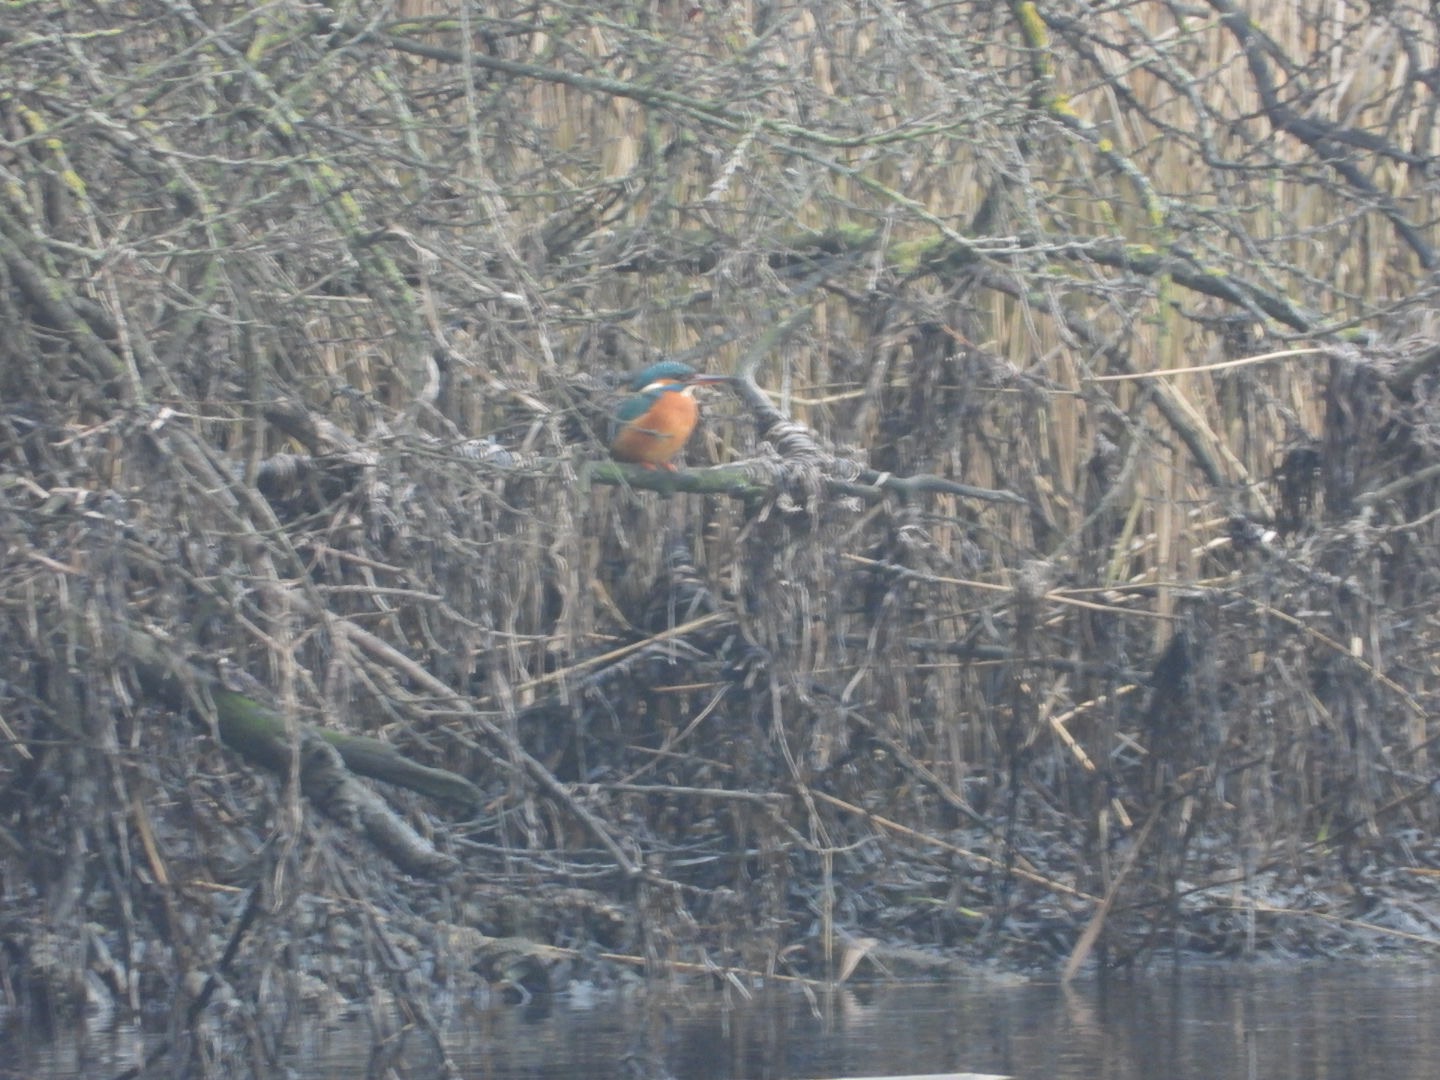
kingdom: Animalia
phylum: Chordata
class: Aves
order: Coraciiformes
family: Alcedinidae
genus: Alcedo
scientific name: Alcedo atthis
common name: Isfugl
